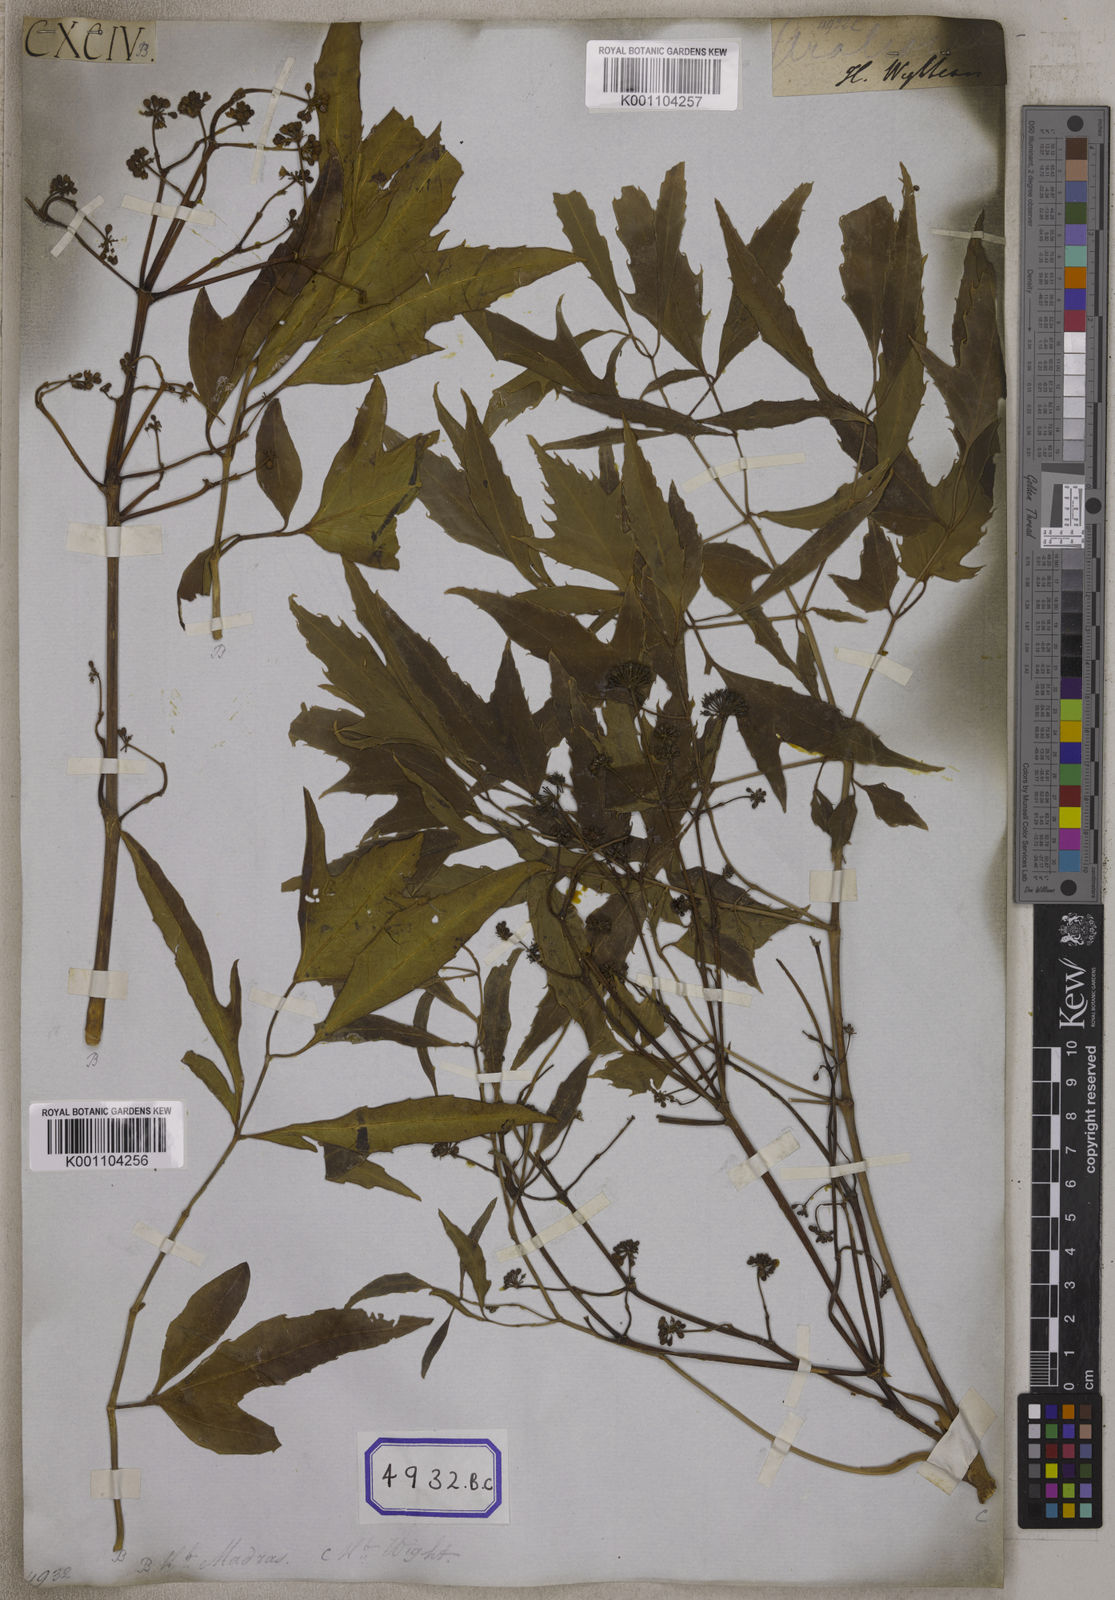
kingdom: Plantae
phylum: Tracheophyta
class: Magnoliopsida
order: Apiales
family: Araliaceae
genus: Polyscias
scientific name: Polyscias fruticosa
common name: Teatree
